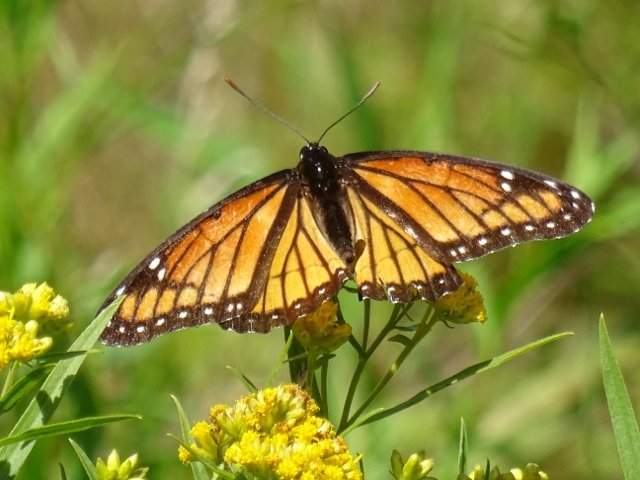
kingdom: Animalia
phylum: Arthropoda
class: Insecta
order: Lepidoptera
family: Nymphalidae
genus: Limenitis
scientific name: Limenitis archippus
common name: Viceroy
